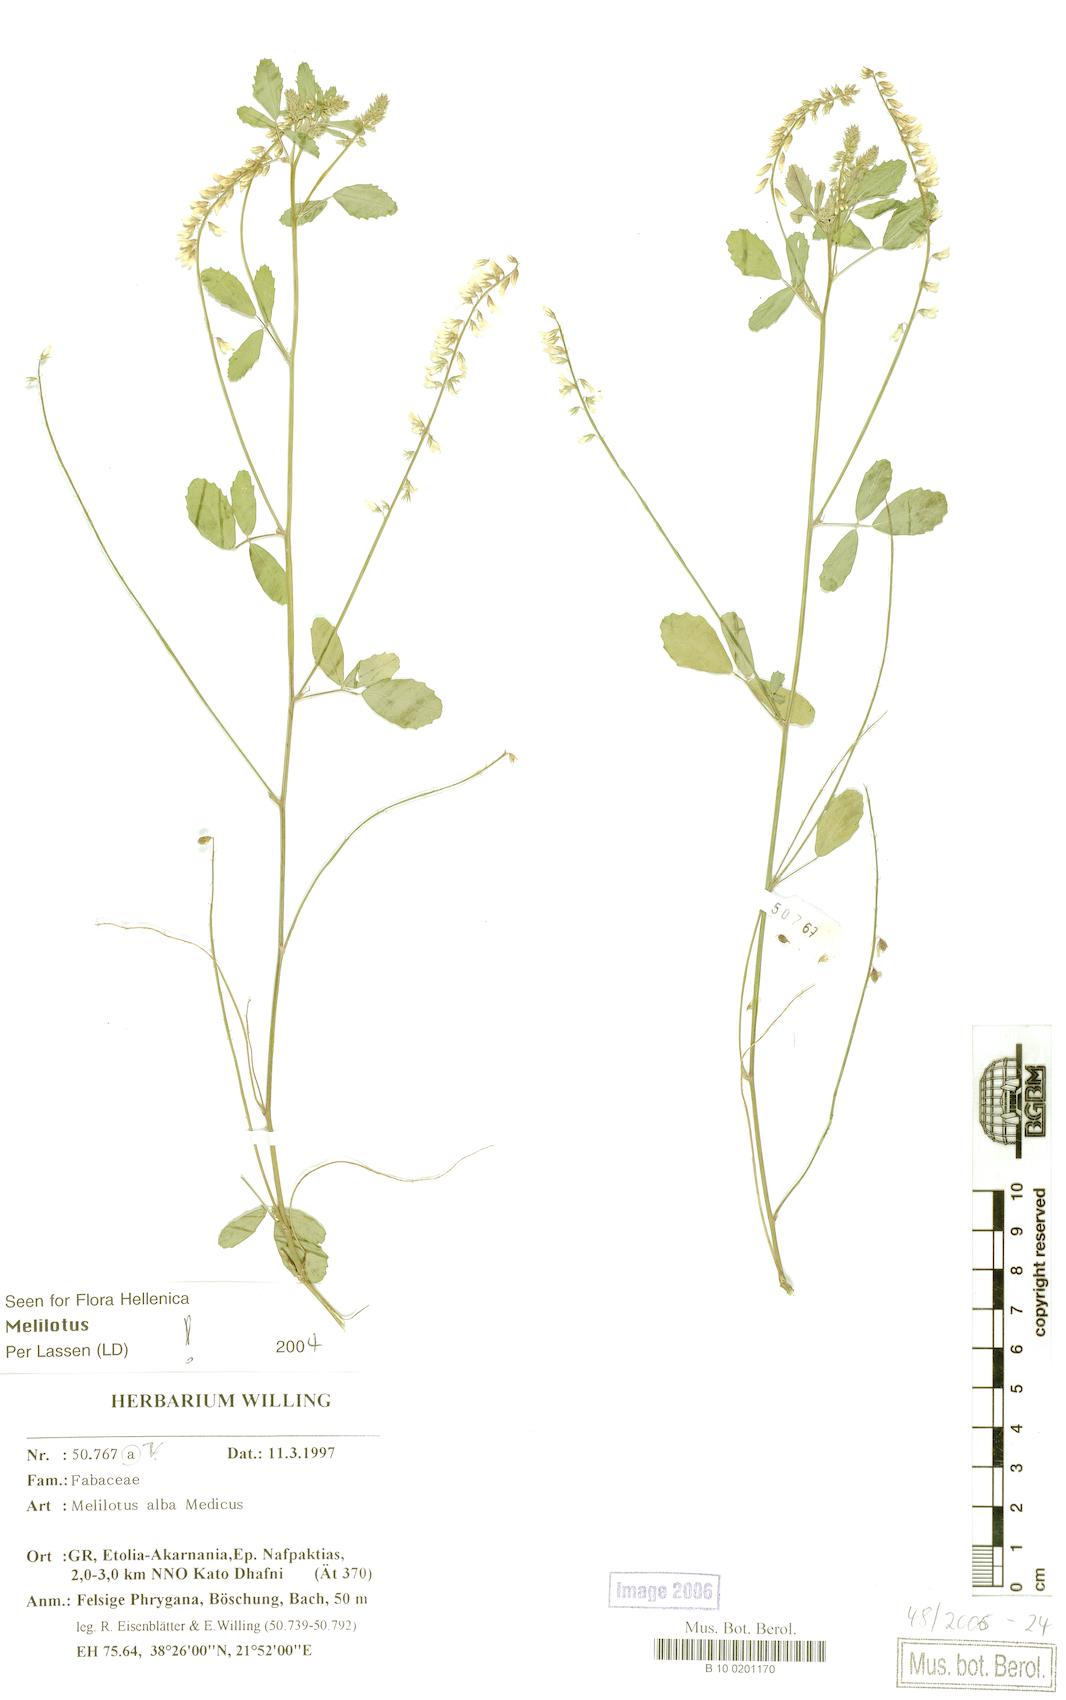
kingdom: Plantae
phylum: Tracheophyta
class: Magnoliopsida
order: Fabales
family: Fabaceae
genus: Melilotus
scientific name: Melilotus albus
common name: White melilot
